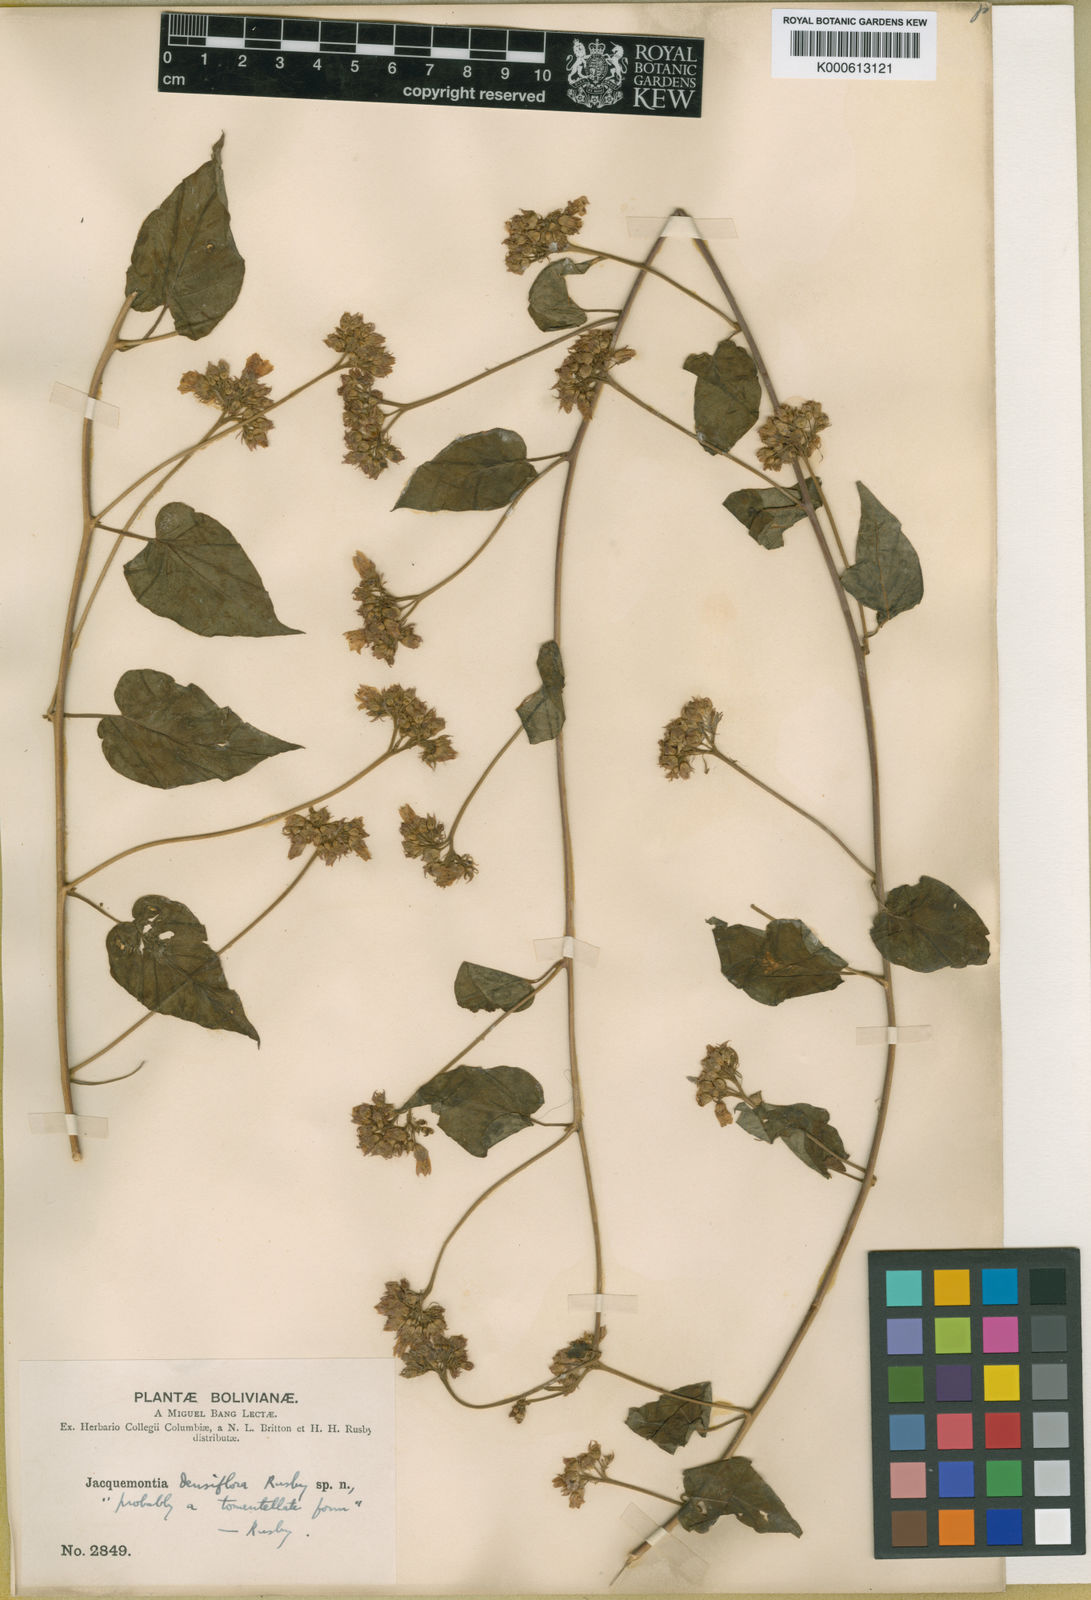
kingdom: Plantae
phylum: Tracheophyta
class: Magnoliopsida
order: Solanales
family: Convolvulaceae
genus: Jacquemontia
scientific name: Jacquemontia
